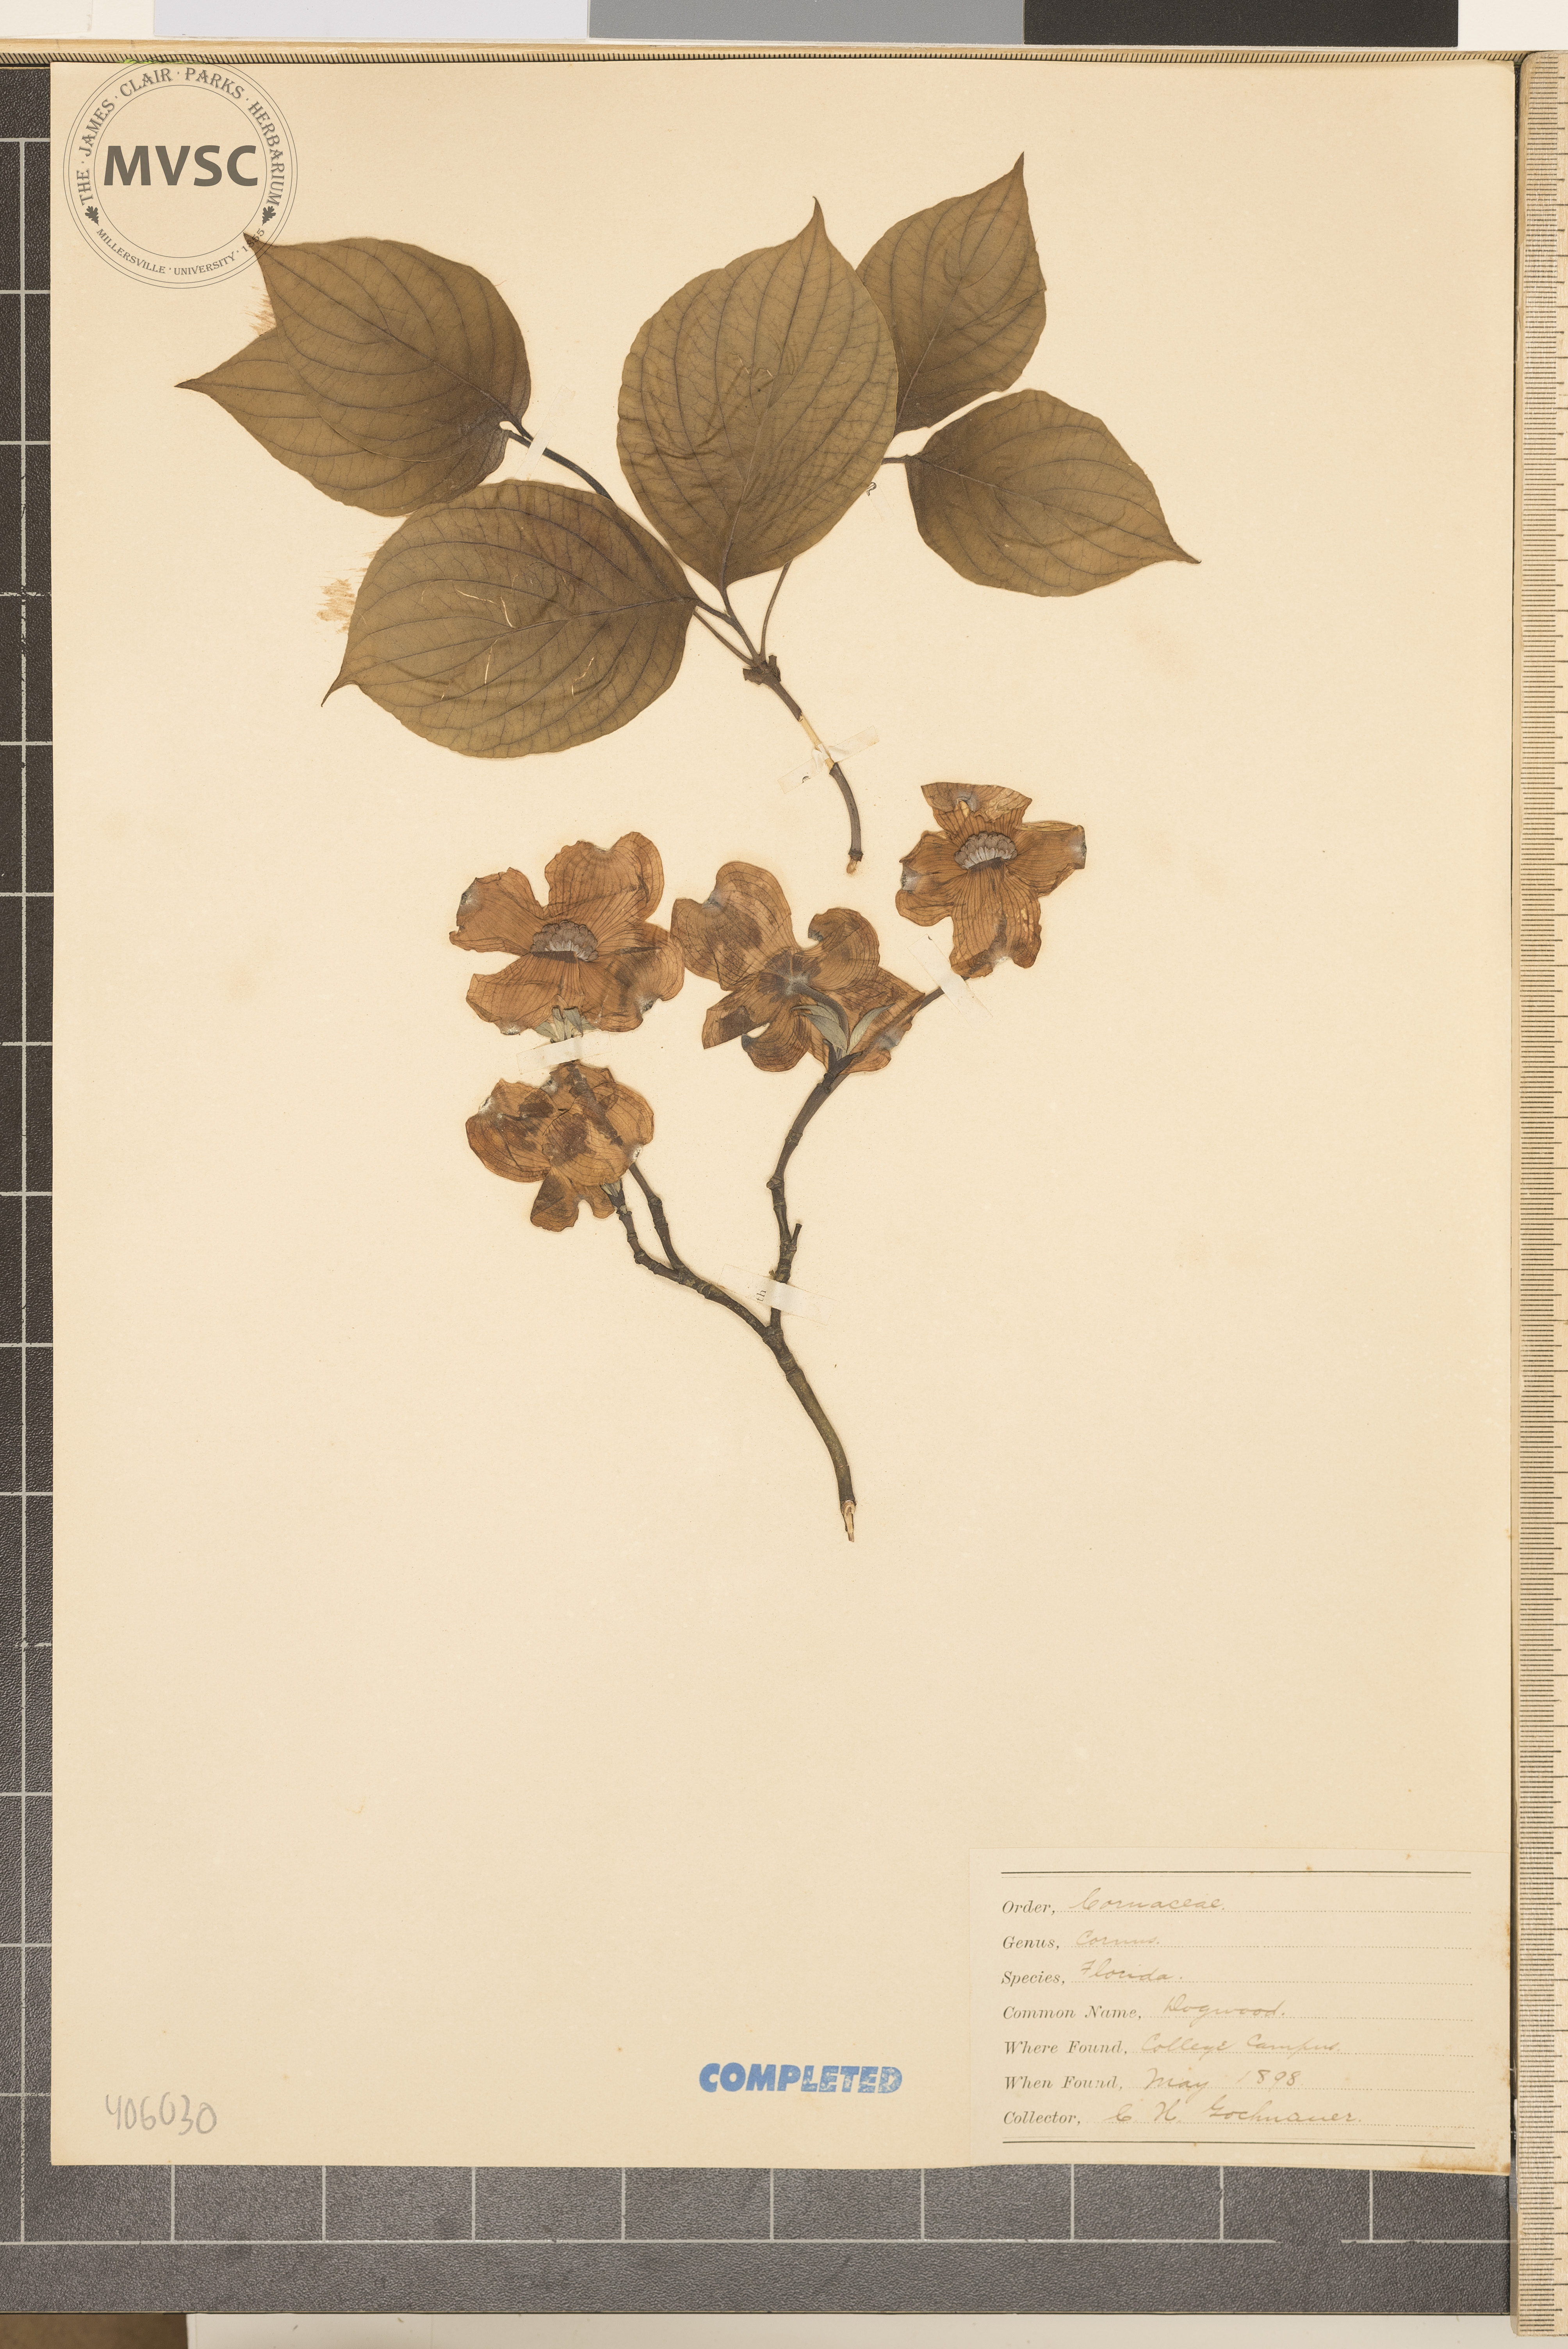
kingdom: Plantae
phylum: Tracheophyta
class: Magnoliopsida
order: Cornales
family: Cornaceae
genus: Cornus
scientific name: Cornus florida
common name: Flowering dogwood
